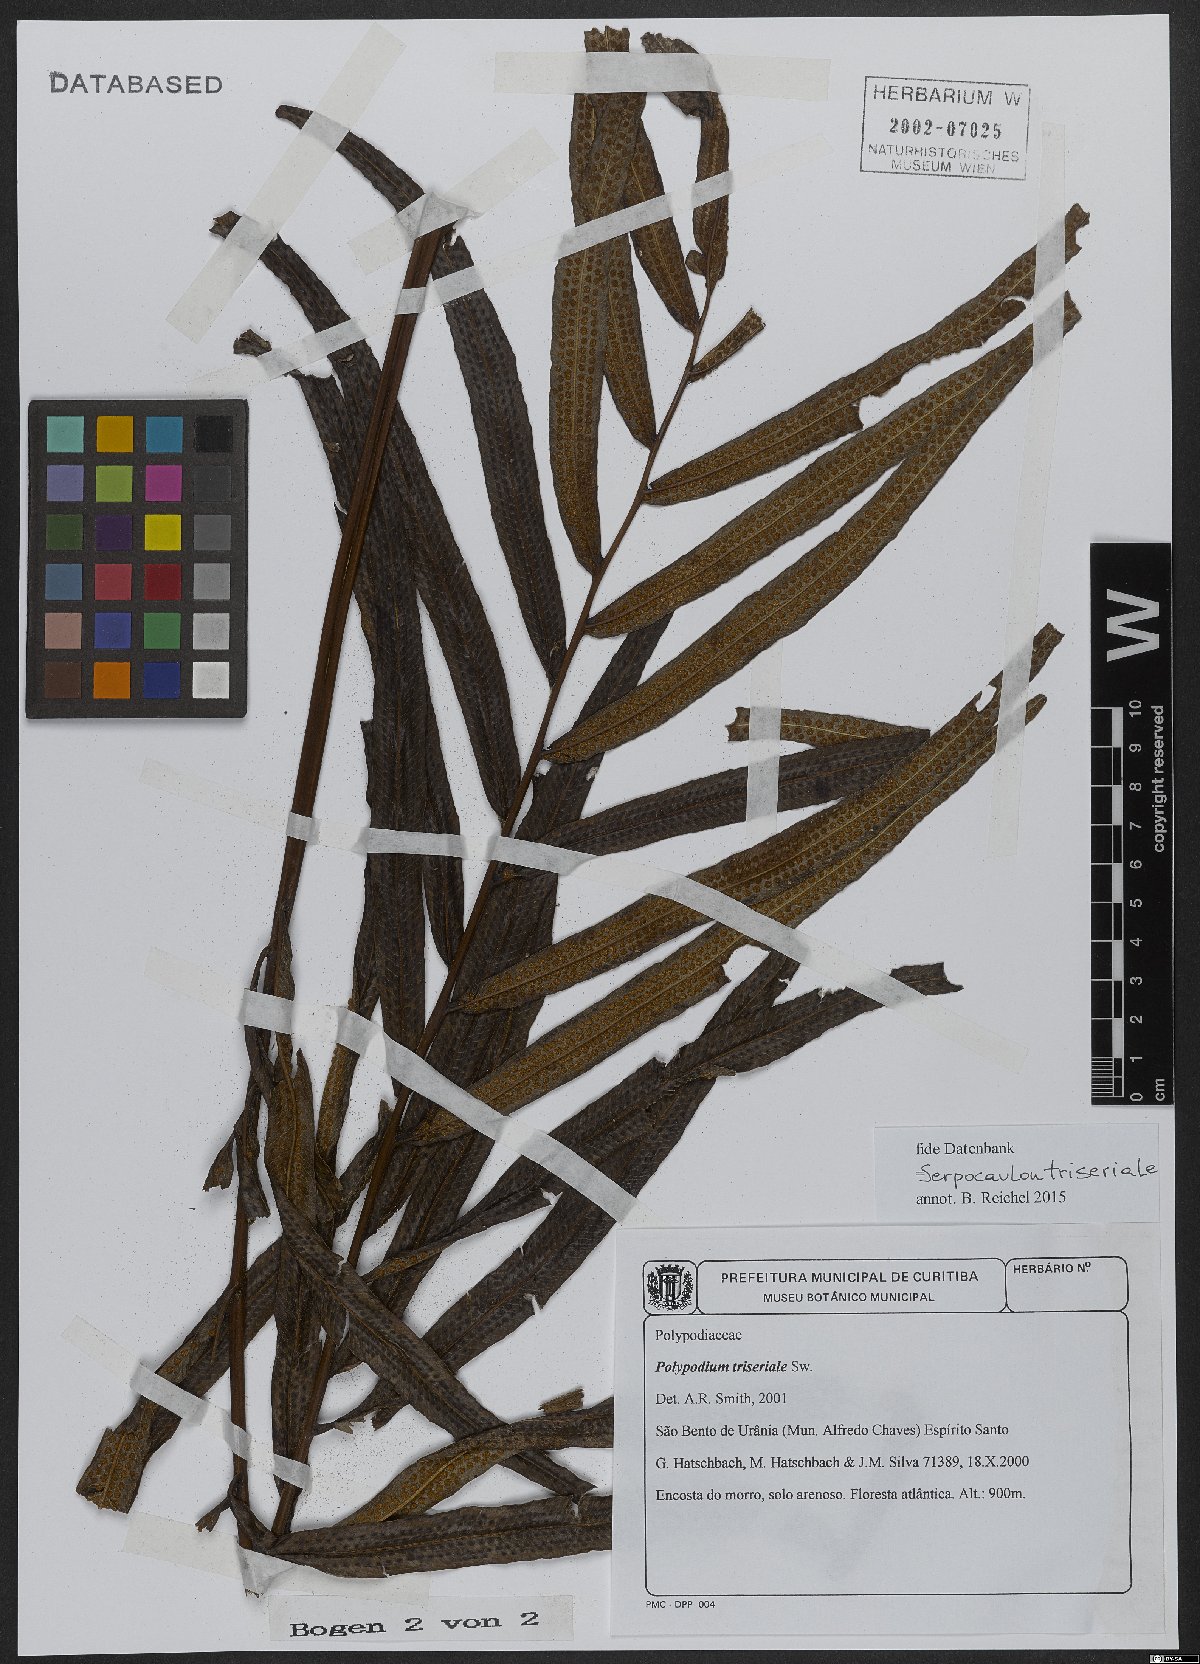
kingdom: Plantae
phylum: Tracheophyta
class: Polypodiopsida
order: Polypodiales
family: Polypodiaceae
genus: Serpocaulon
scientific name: Serpocaulon triseriale
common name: Angle-vein fern
